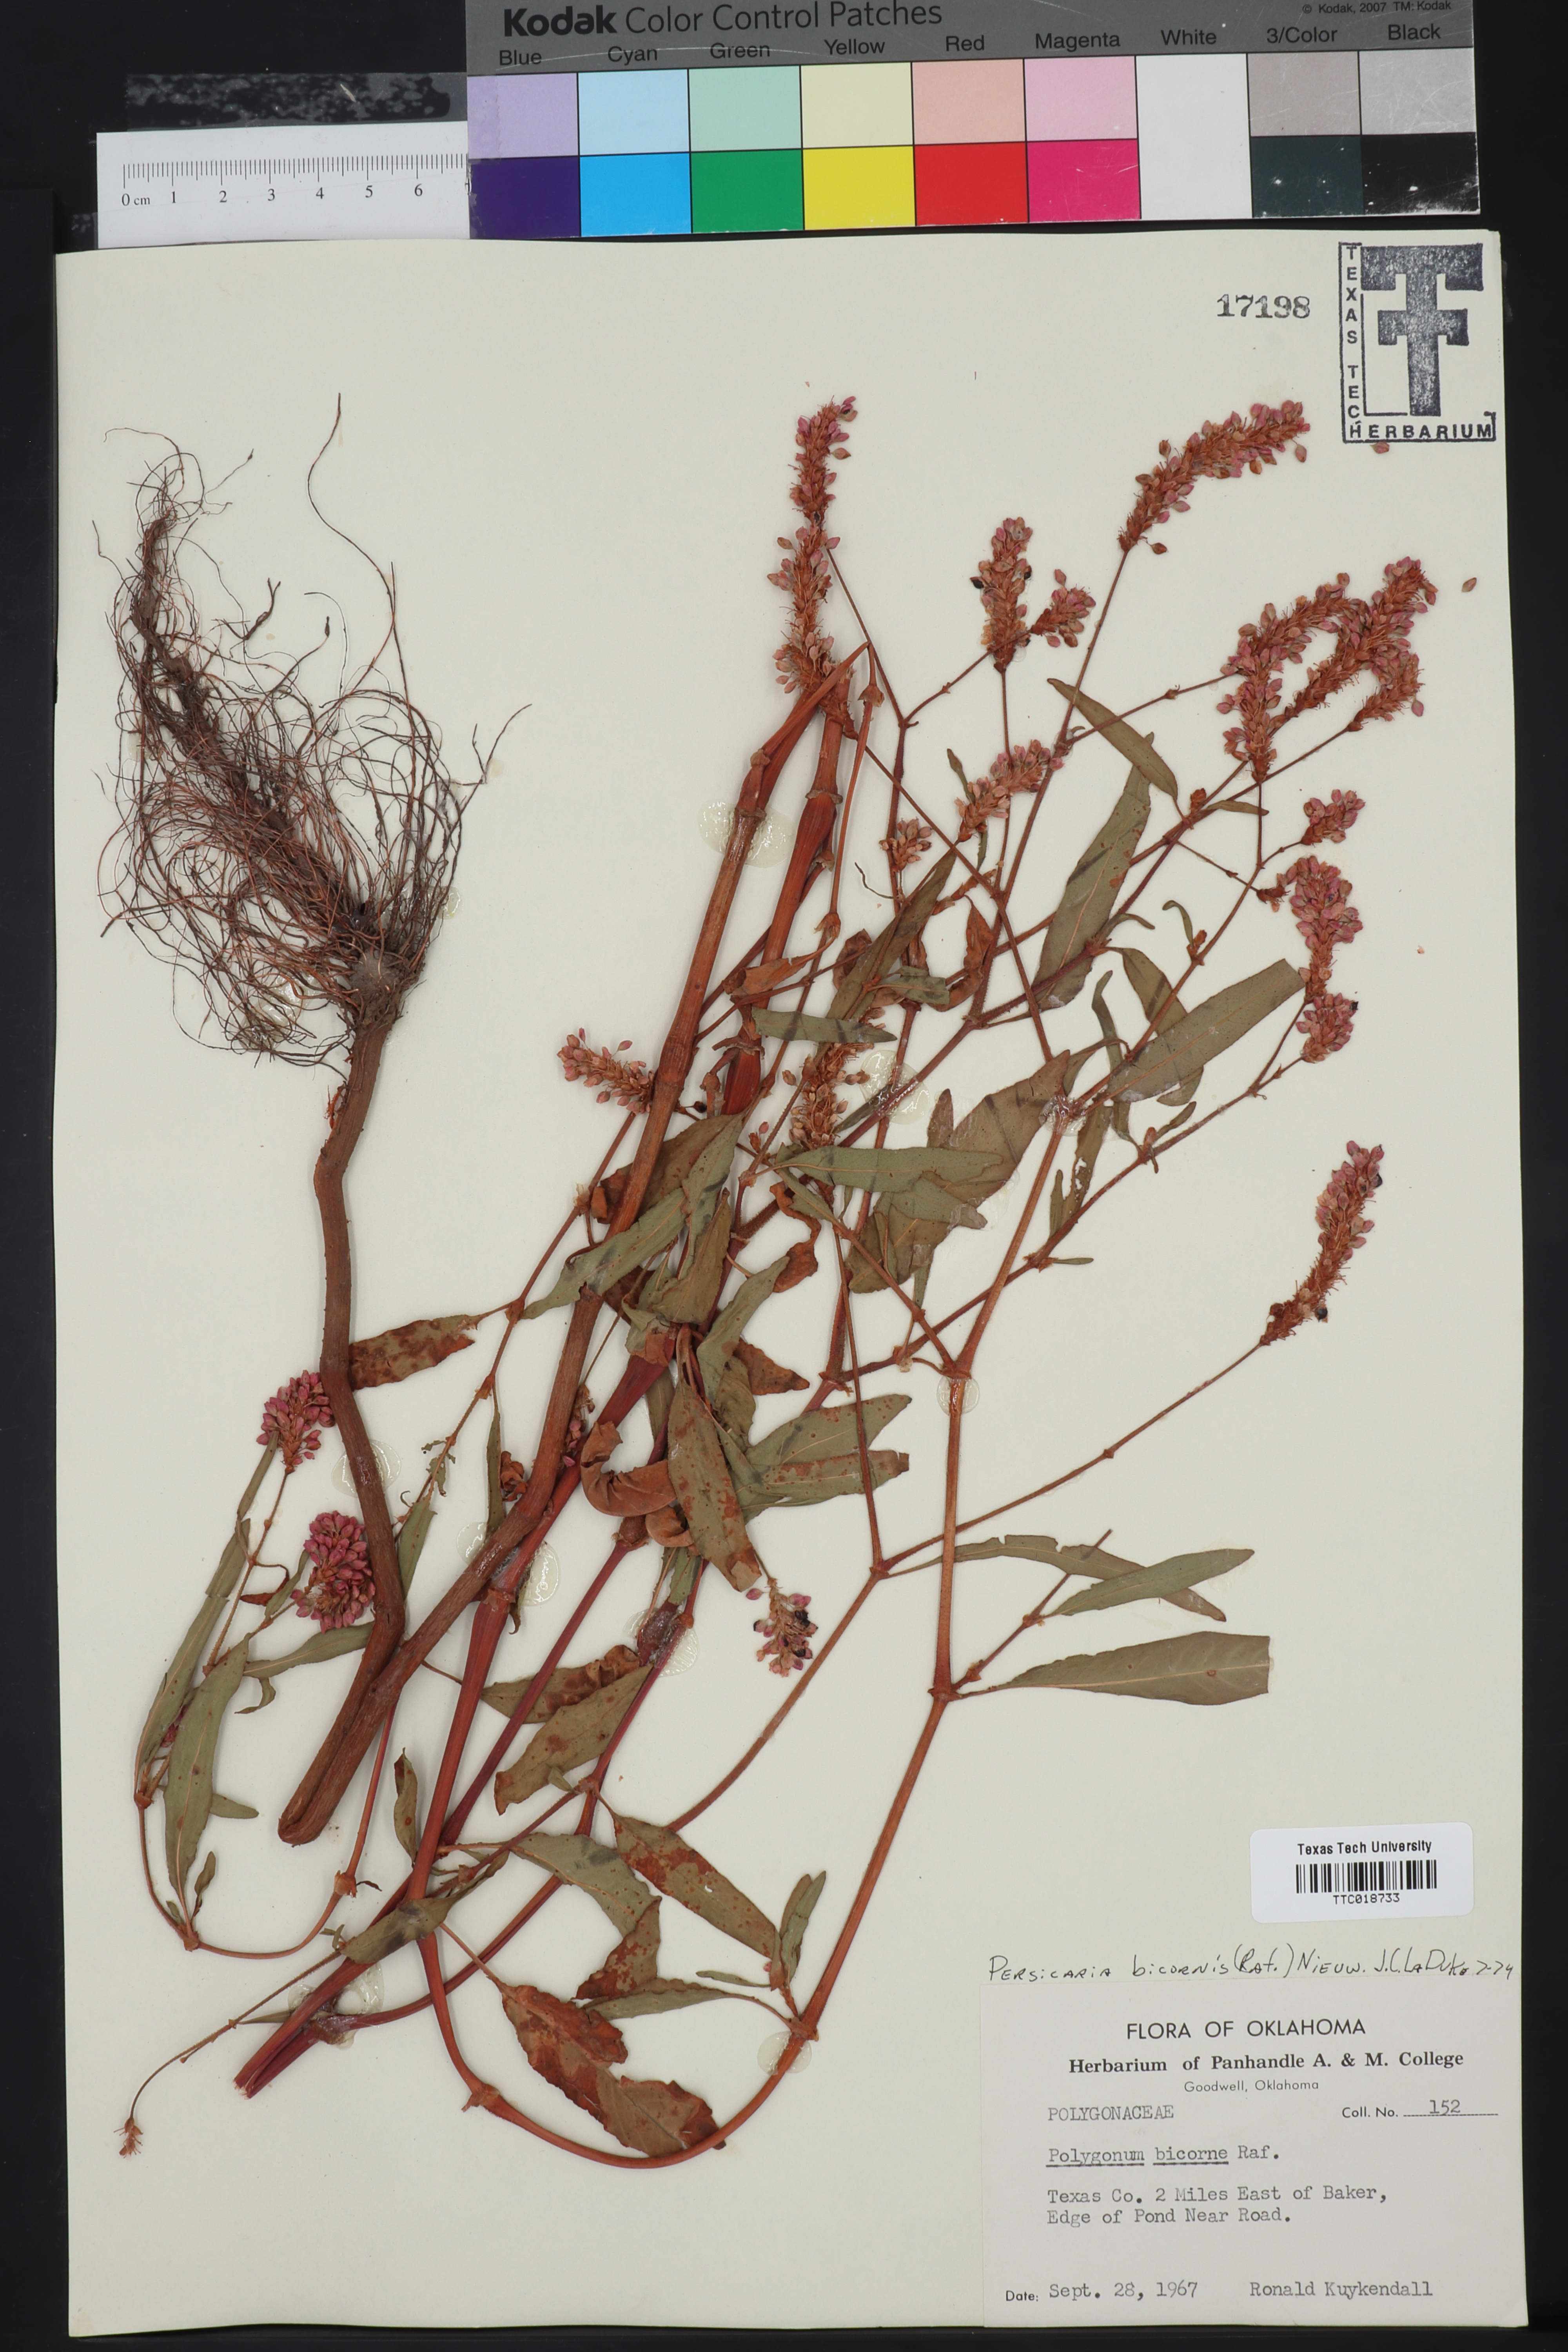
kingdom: Plantae
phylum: Tracheophyta
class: Magnoliopsida
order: Caryophyllales
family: Polygonaceae
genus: Persicaria
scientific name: Persicaria bicornis
